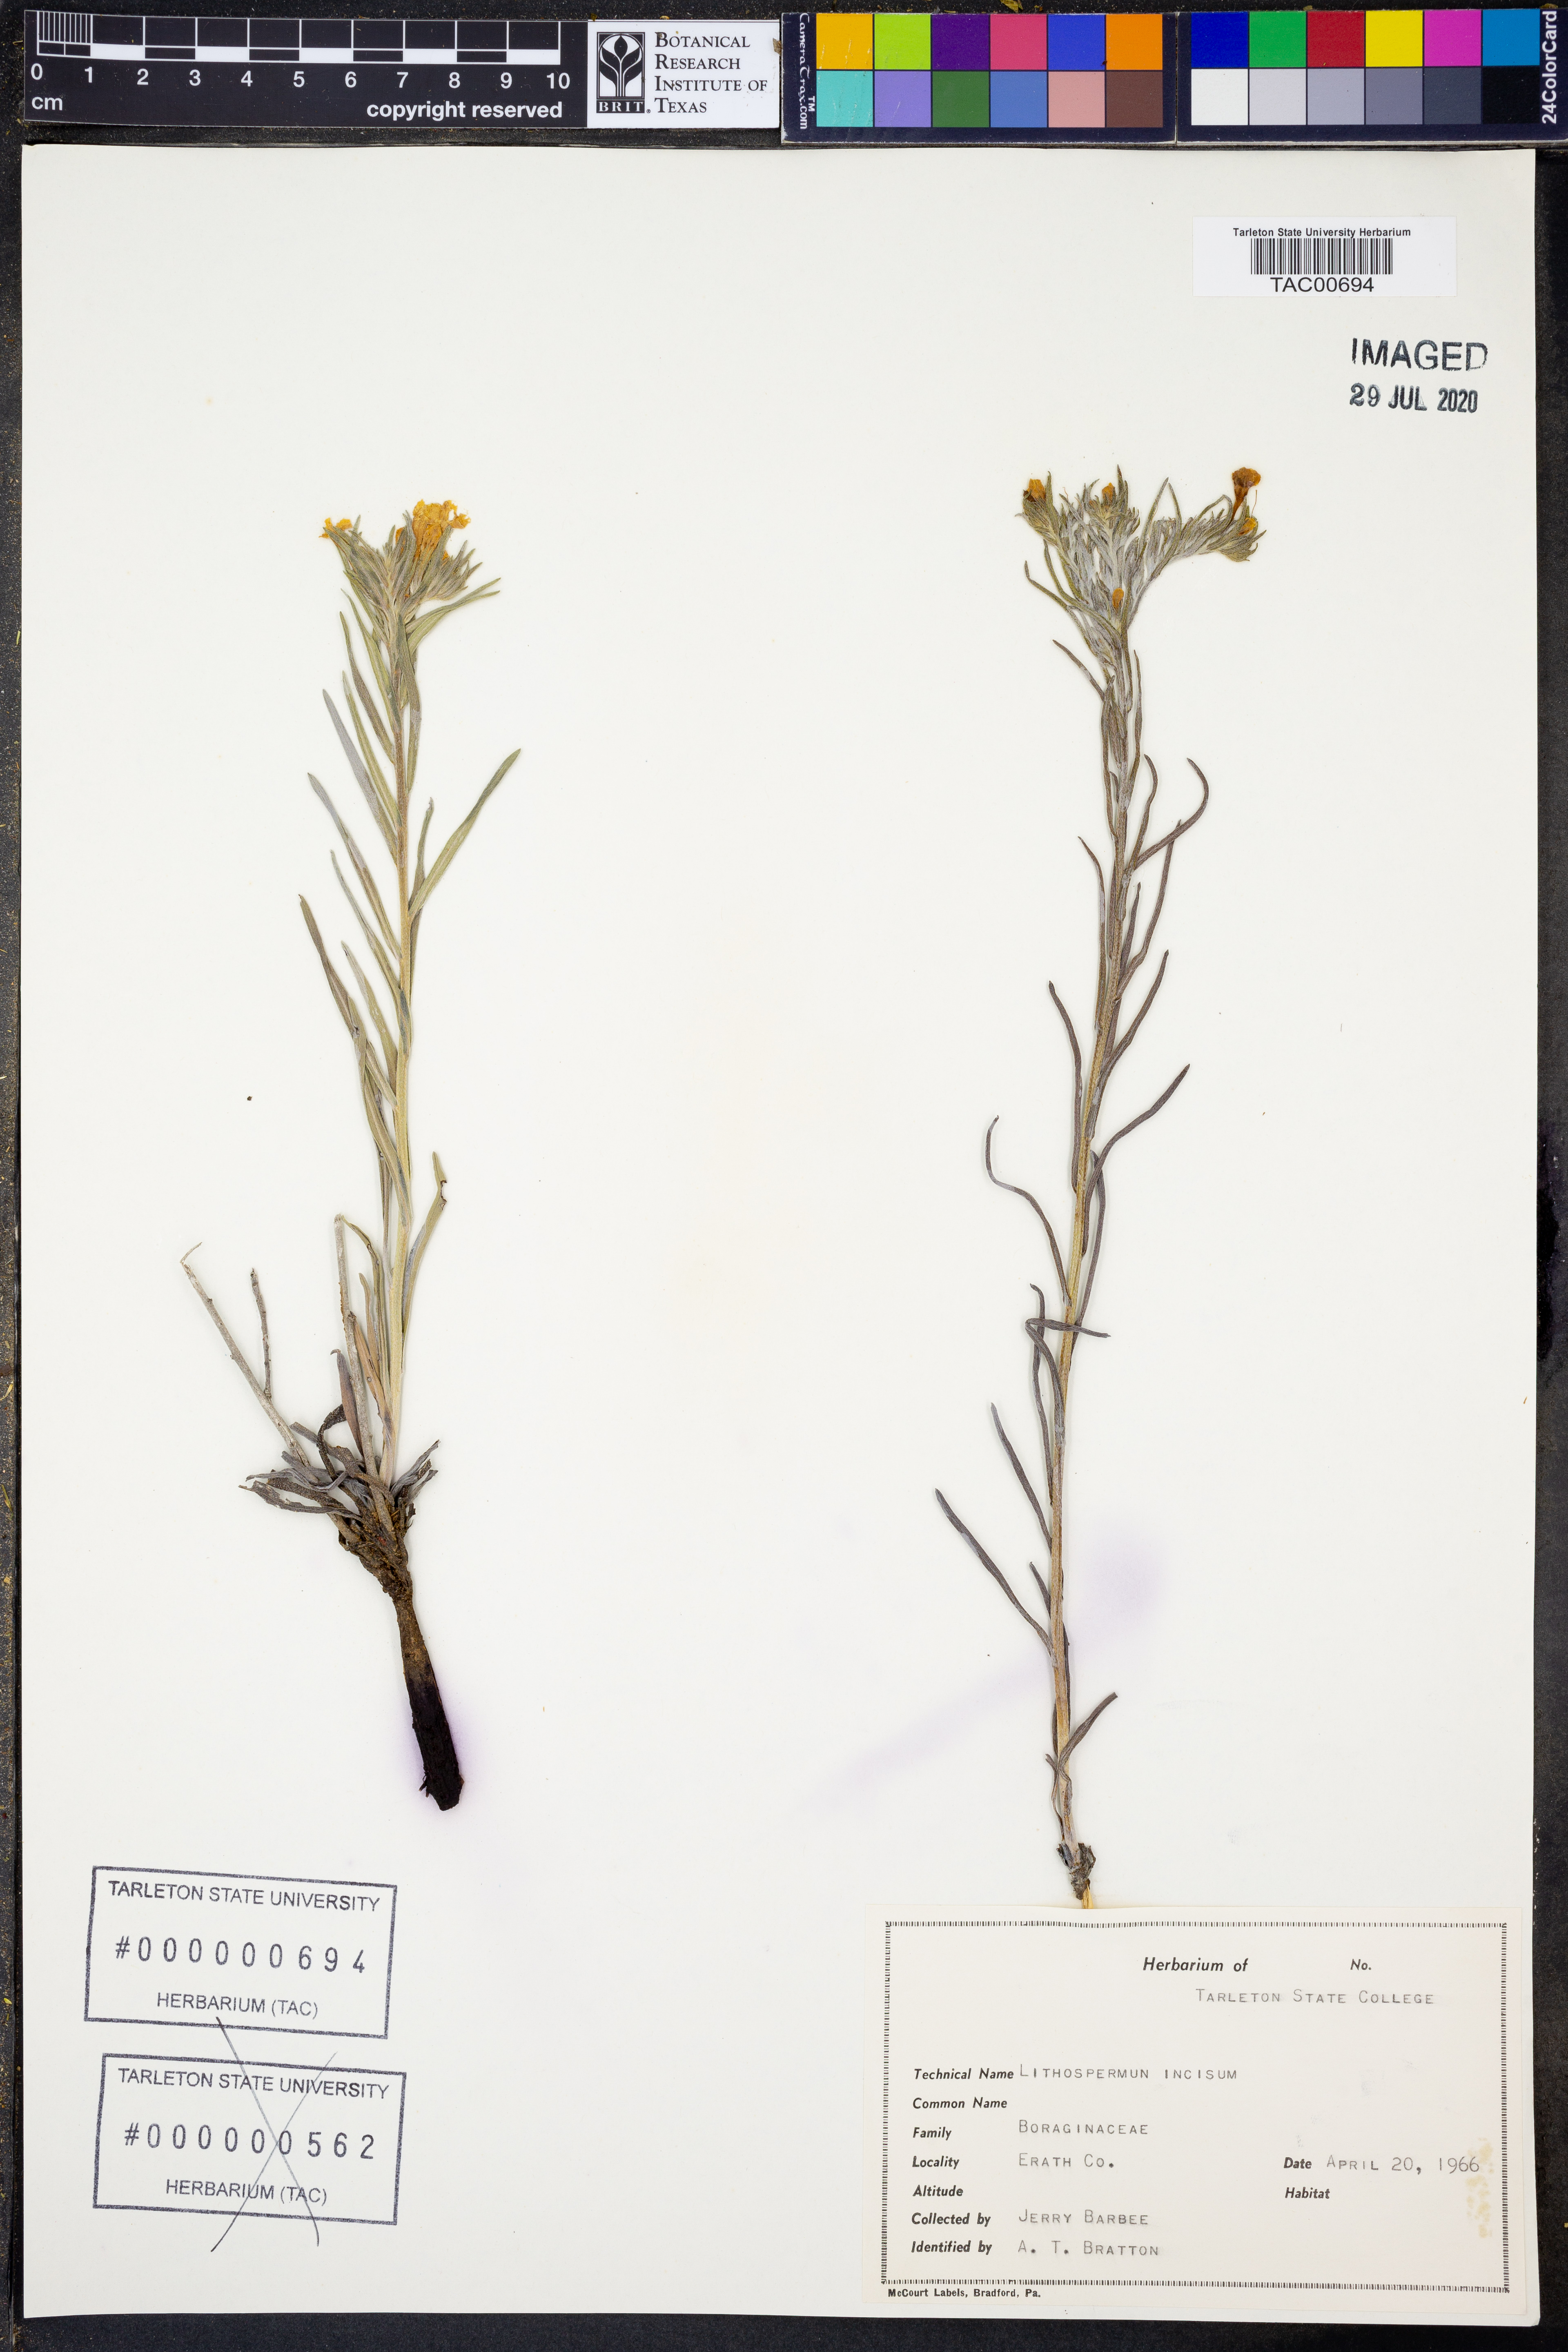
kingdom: Plantae
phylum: Tracheophyta
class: Magnoliopsida
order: Boraginales
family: Boraginaceae
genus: Lithospermum
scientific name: Lithospermum incisum
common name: Fringed gromwell
